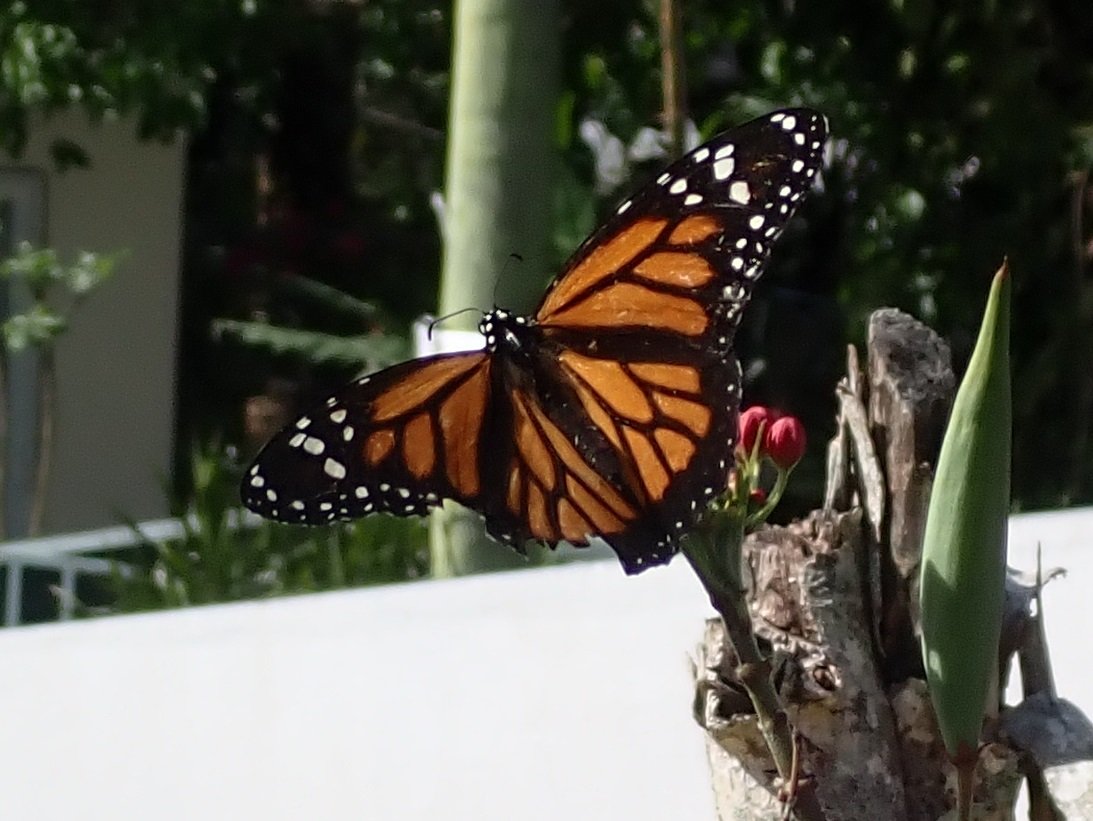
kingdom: Animalia
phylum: Arthropoda
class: Insecta
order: Lepidoptera
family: Nymphalidae
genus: Danaus
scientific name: Danaus plexippus
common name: Monarch
